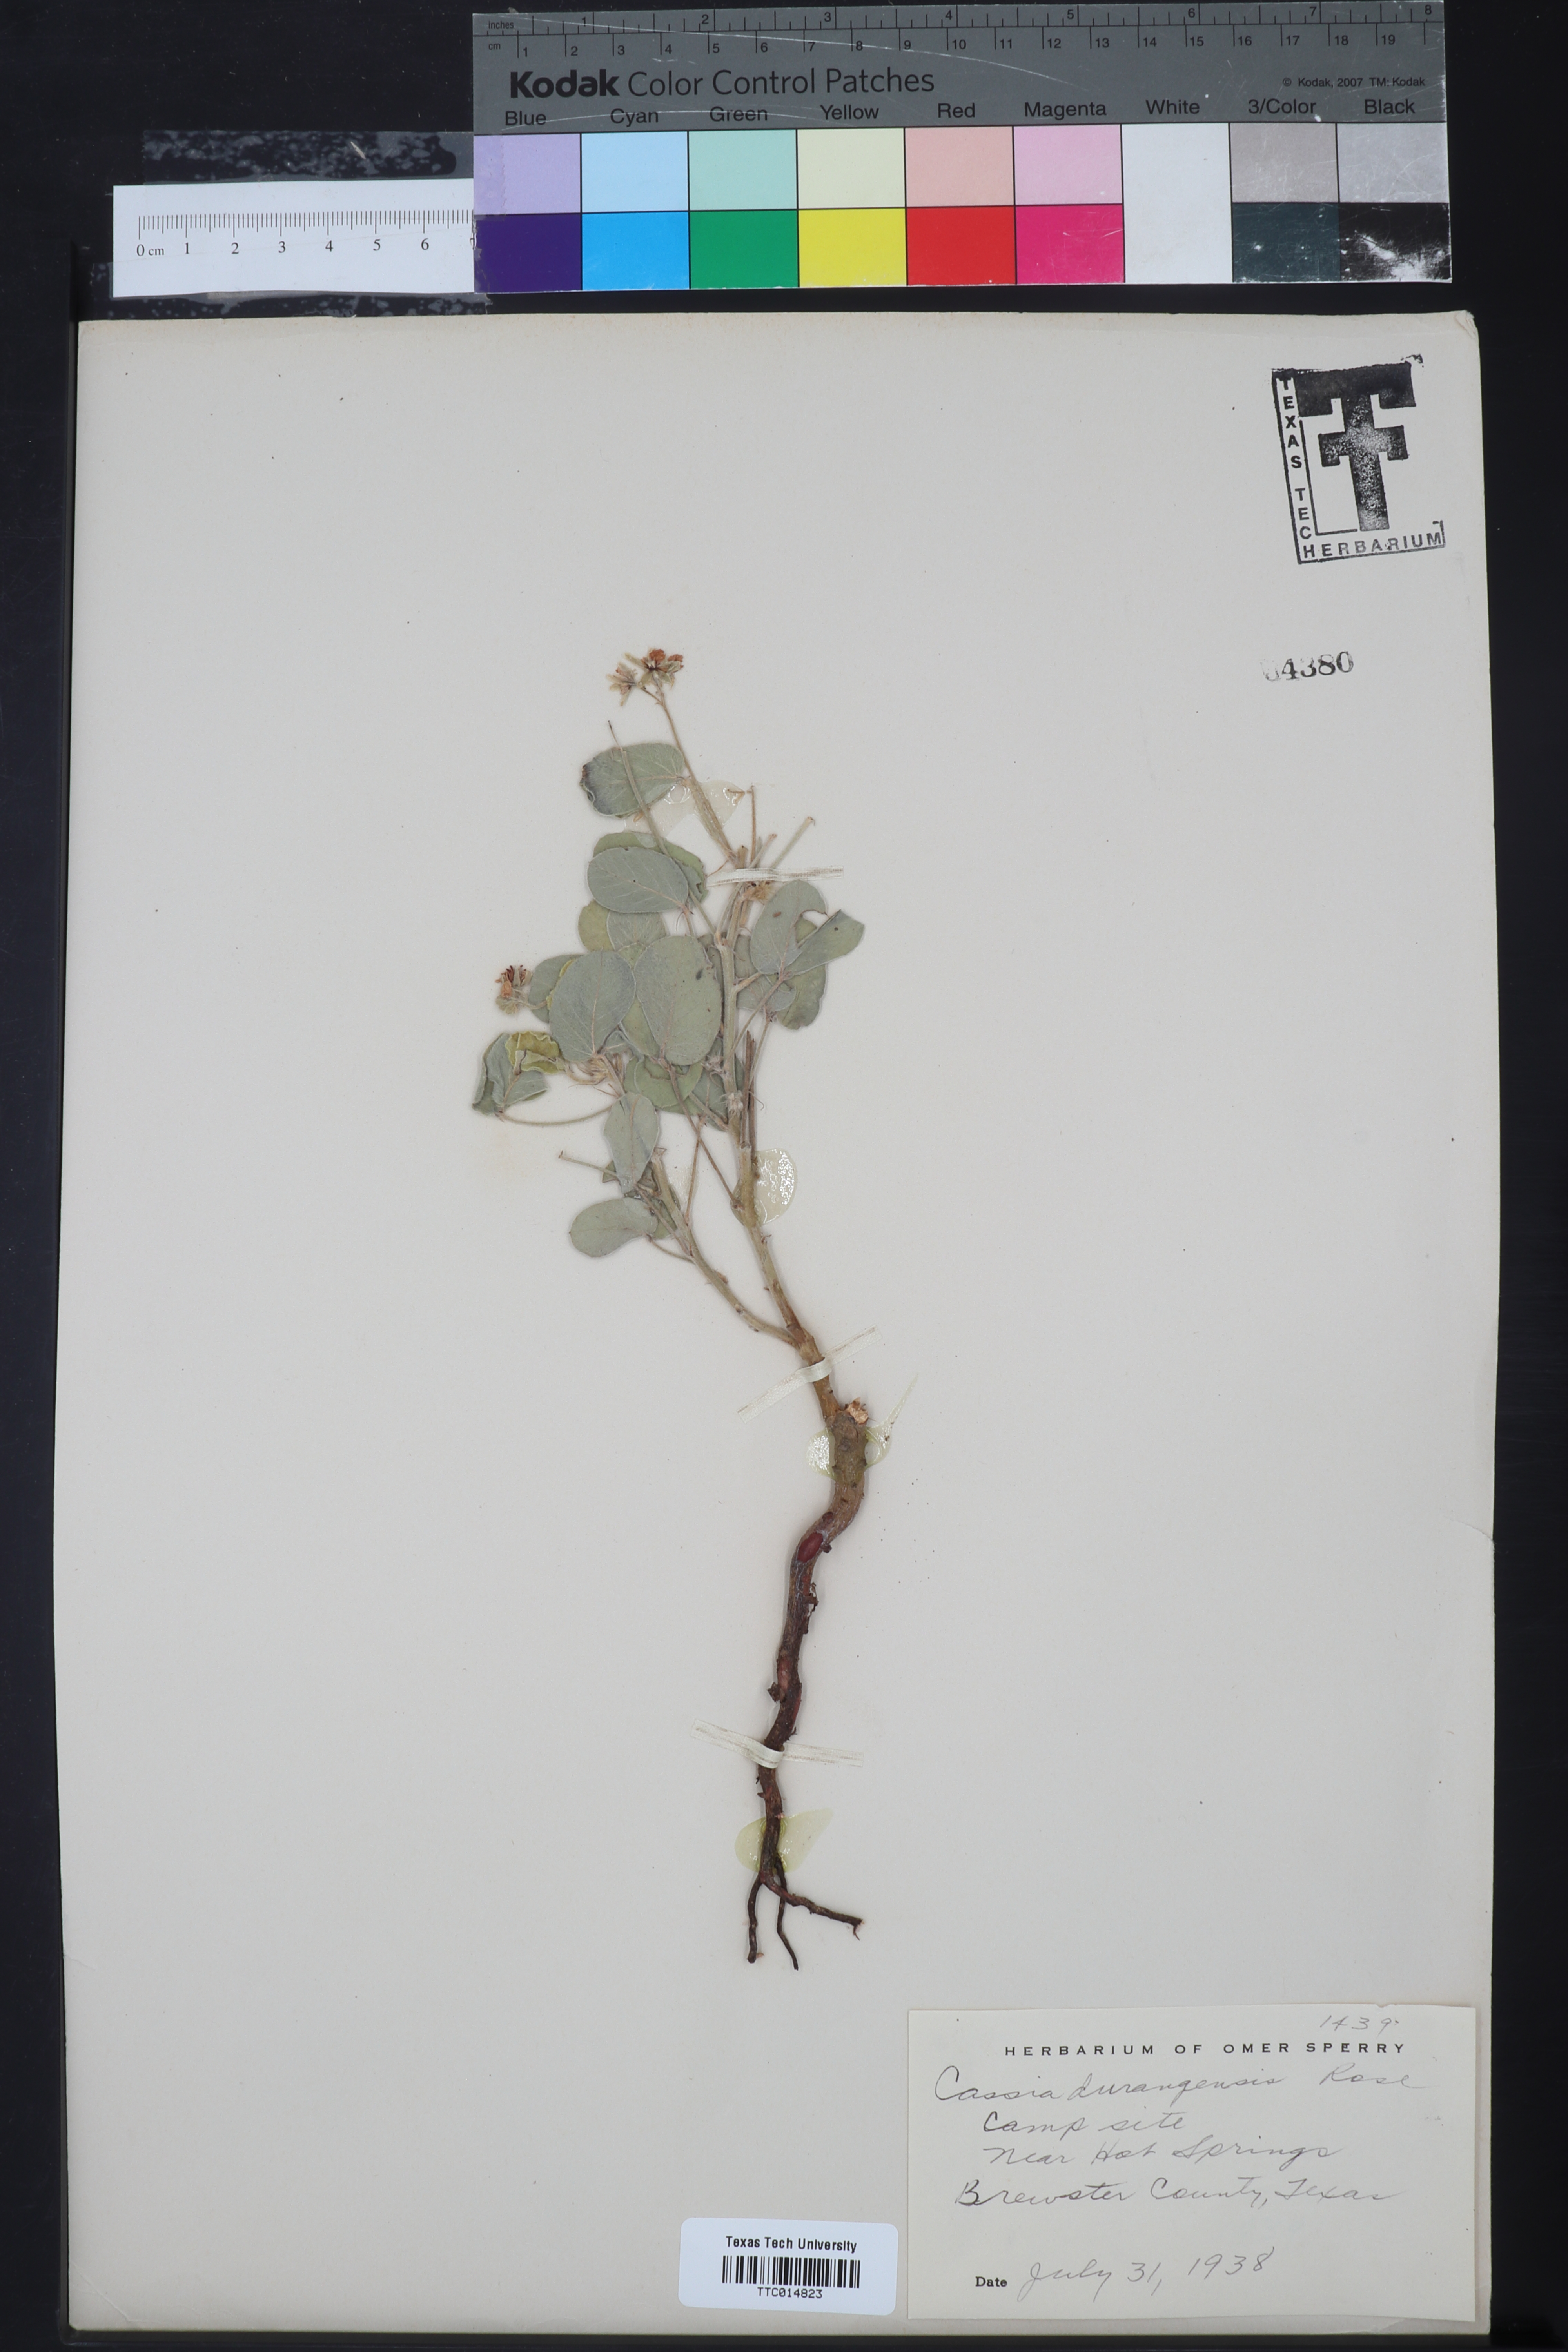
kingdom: Plantae
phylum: Tracheophyta
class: Magnoliopsida
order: Fabales
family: Fabaceae
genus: Senna
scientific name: Senna durangensis
